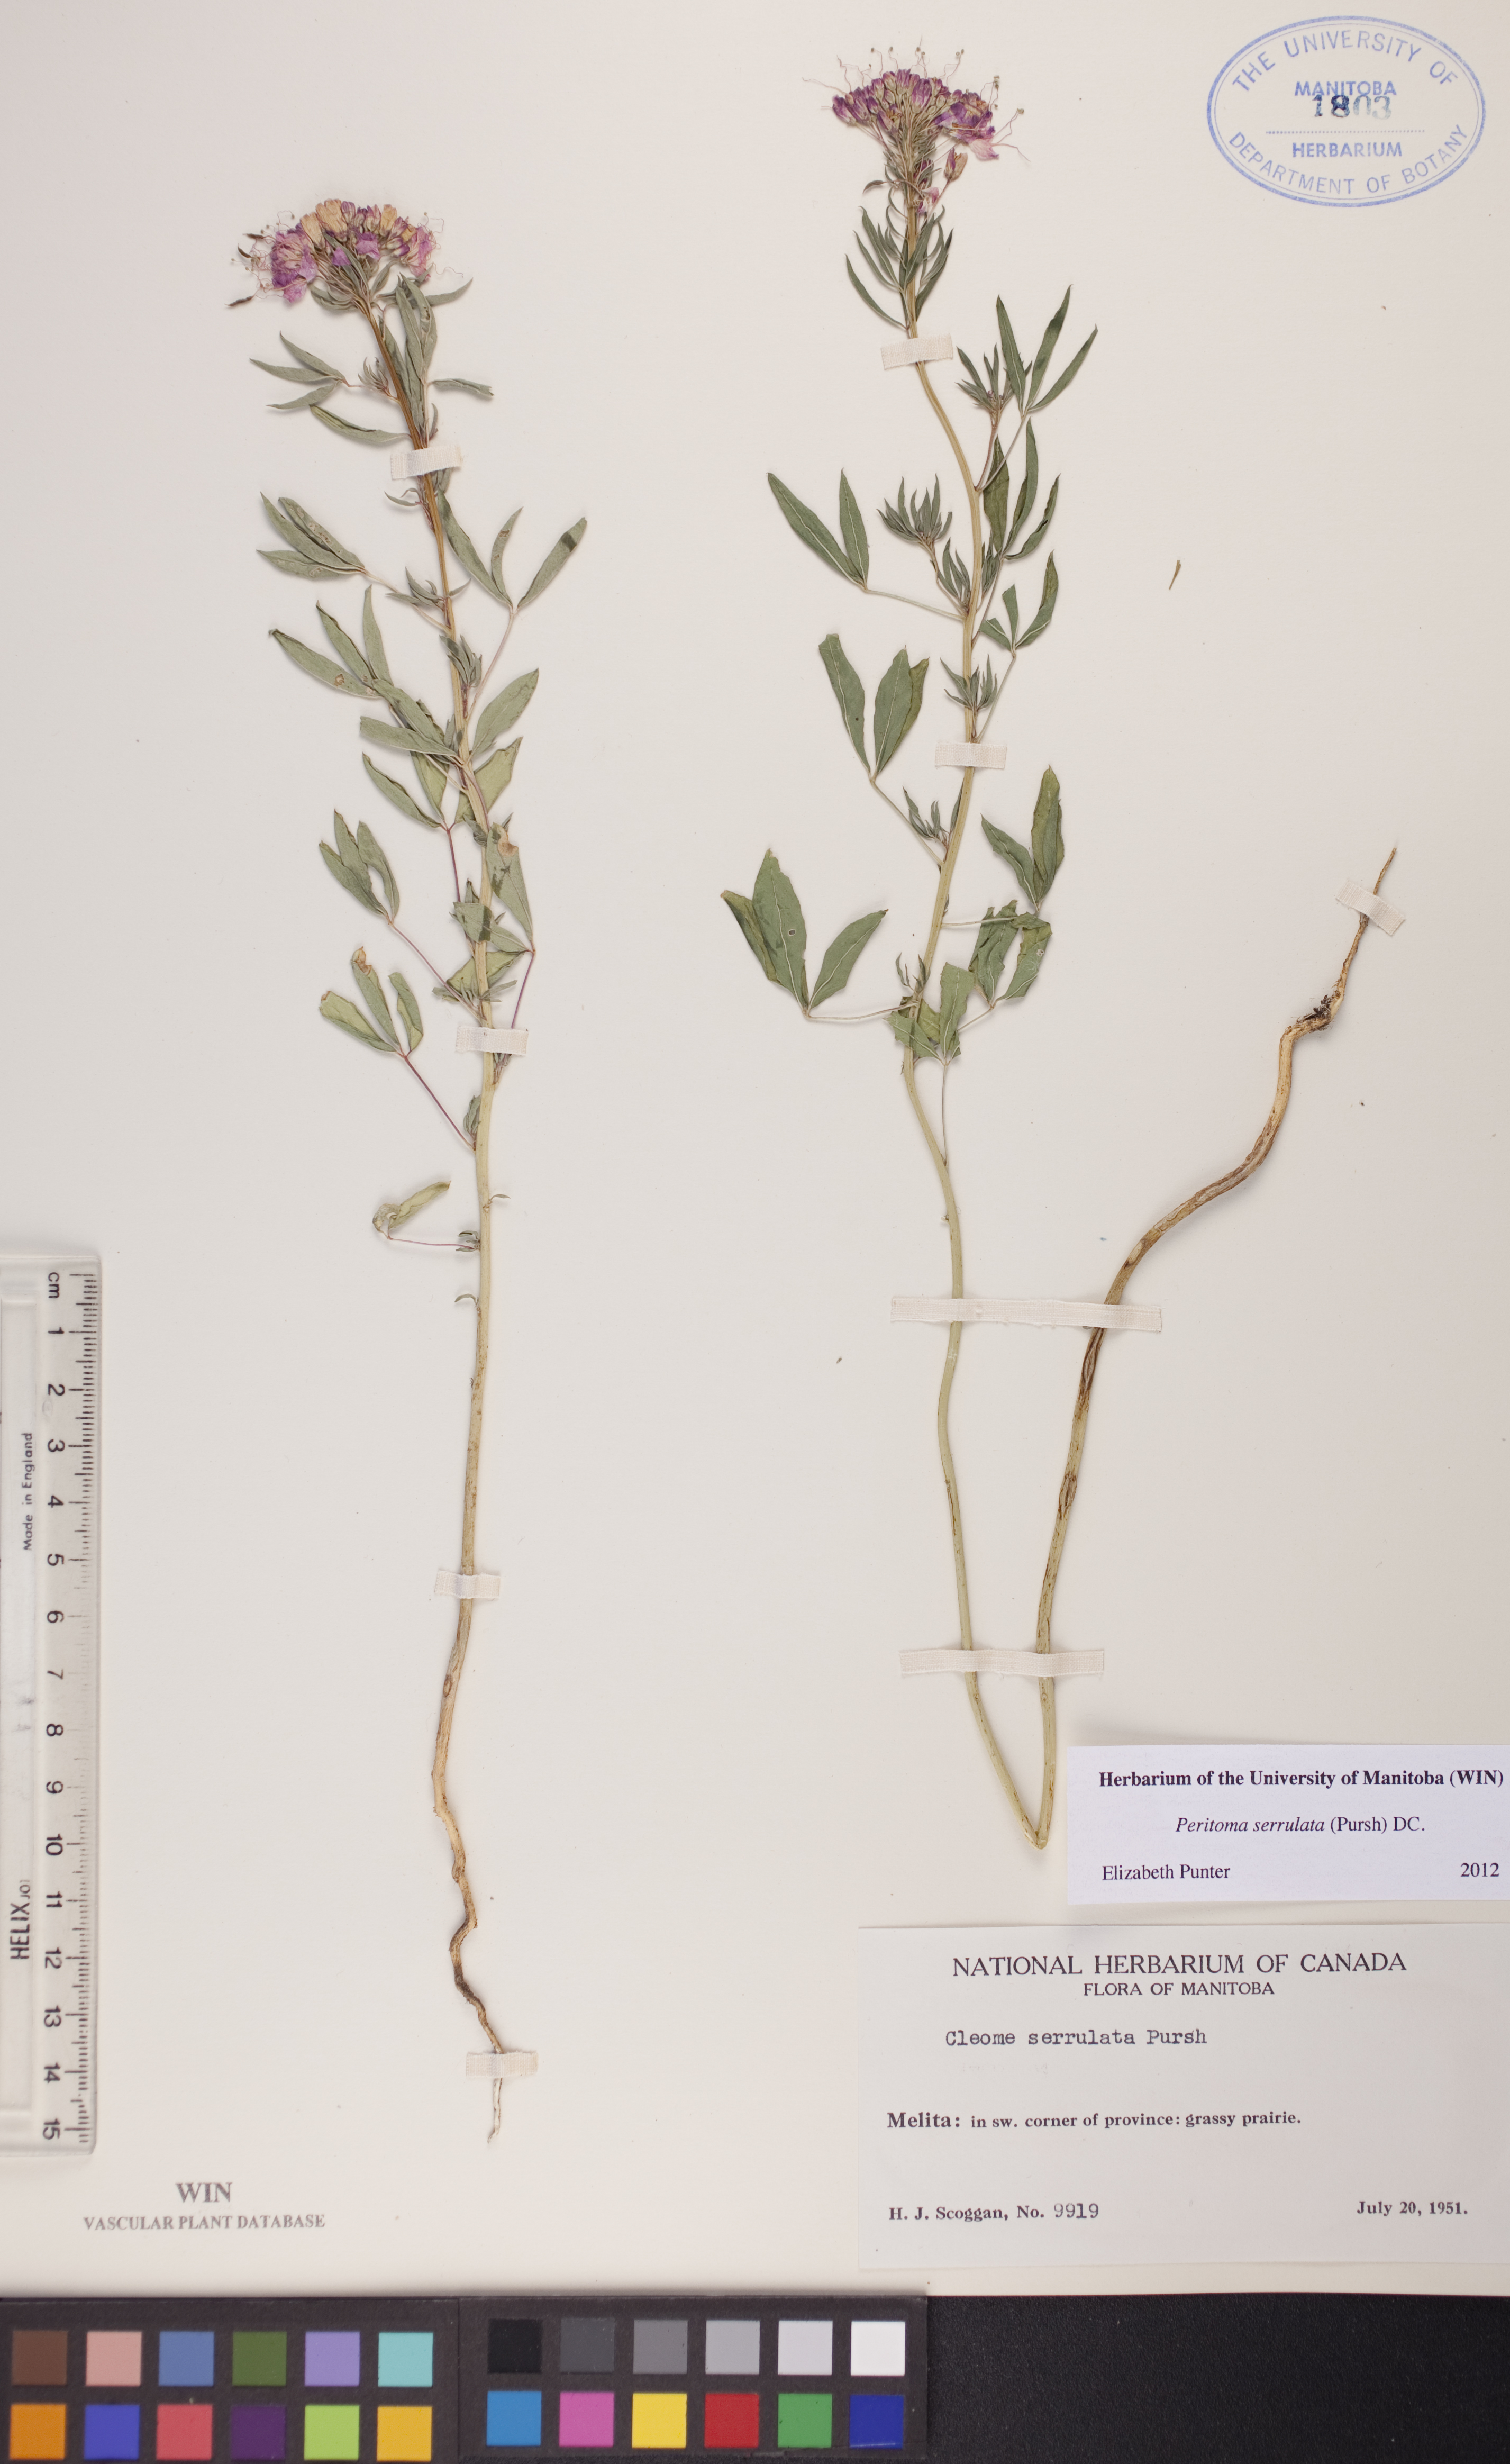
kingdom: Plantae
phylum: Tracheophyta
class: Magnoliopsida
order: Brassicales
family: Cleomaceae
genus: Cleomella
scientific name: Cleomella serrulata
